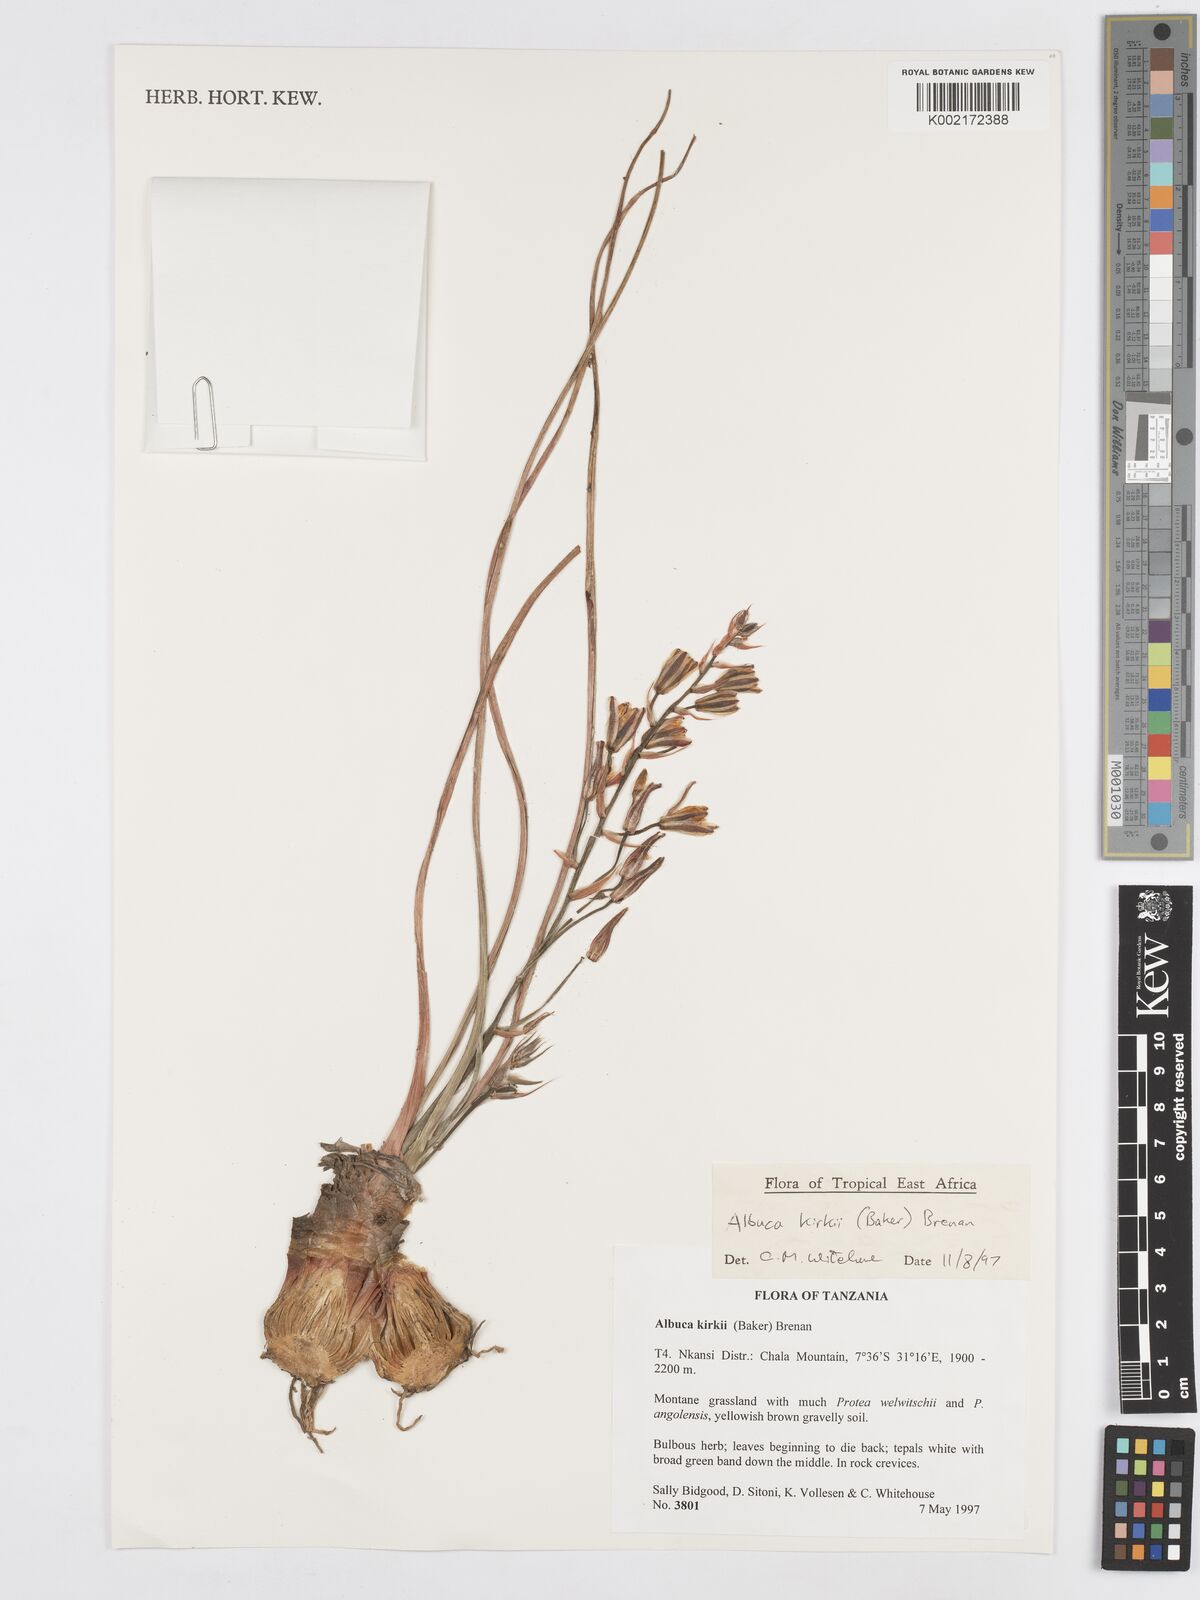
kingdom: Plantae
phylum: Tracheophyta
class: Liliopsida
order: Asparagales
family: Asparagaceae
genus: Albuca
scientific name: Albuca kirkii
